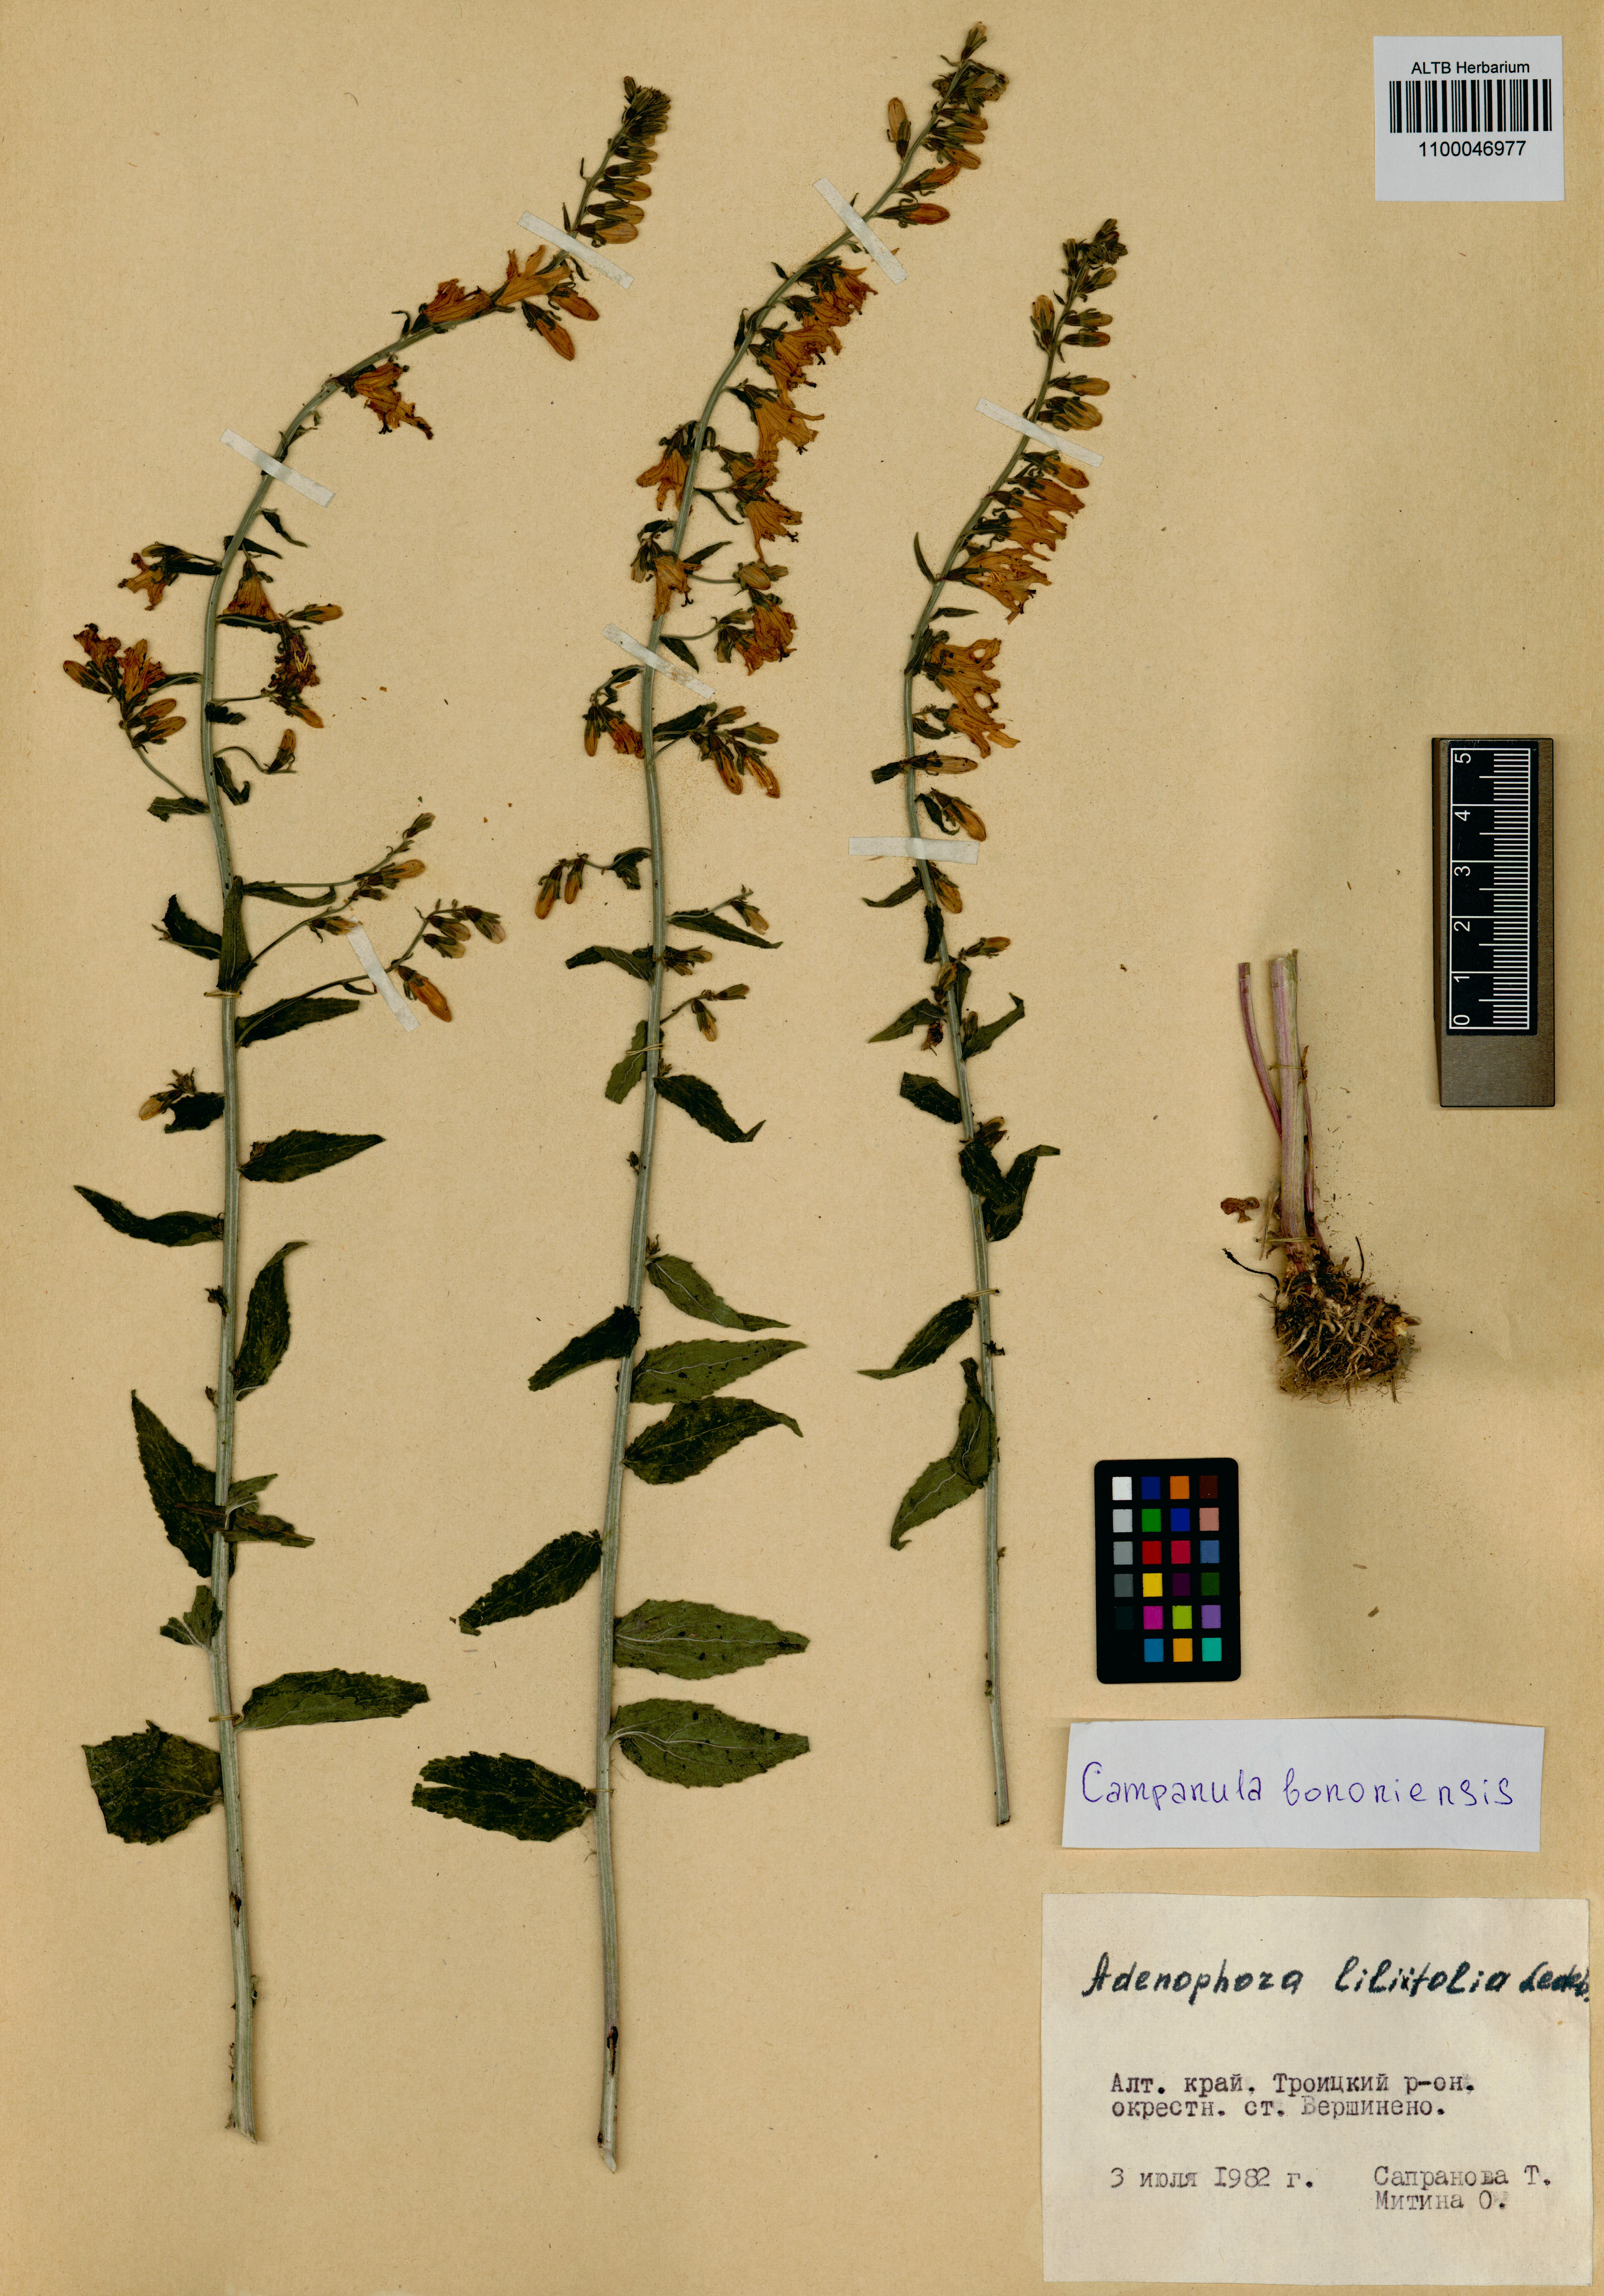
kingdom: Plantae
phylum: Tracheophyta
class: Magnoliopsida
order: Asterales
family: Campanulaceae
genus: Campanula
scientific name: Campanula bononiensis
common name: Pale bellflower
